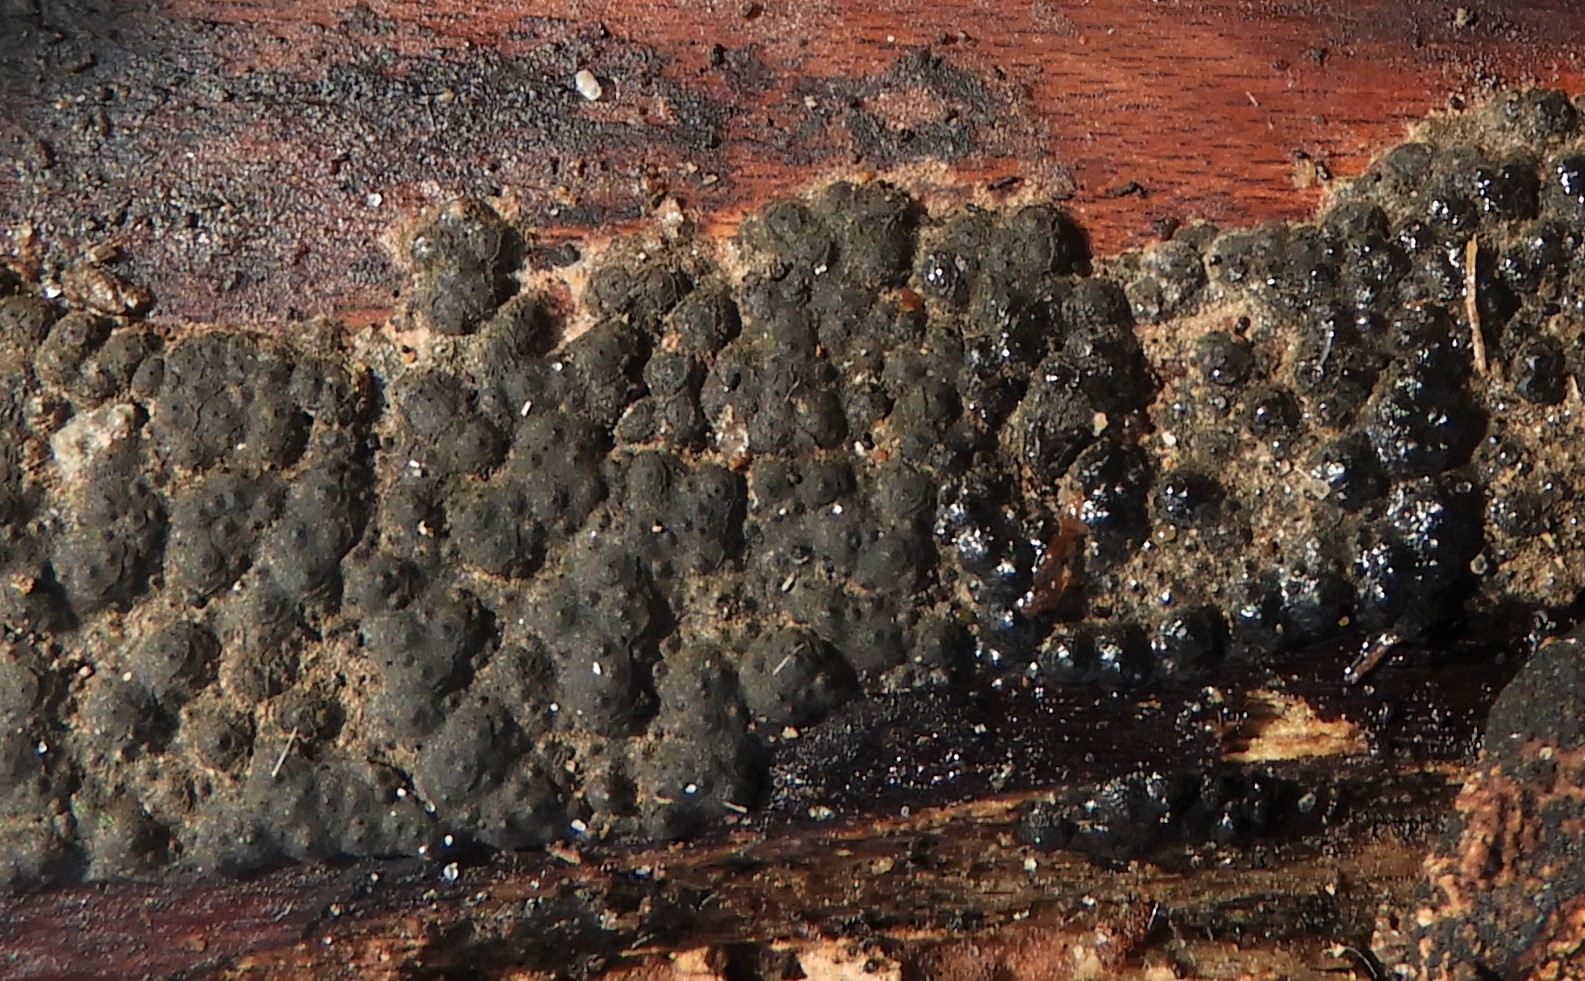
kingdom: Fungi
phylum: Ascomycota
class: Sordariomycetes
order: Xylariales
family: Xylariaceae
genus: Nemania
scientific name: Nemania
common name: kuldyne
